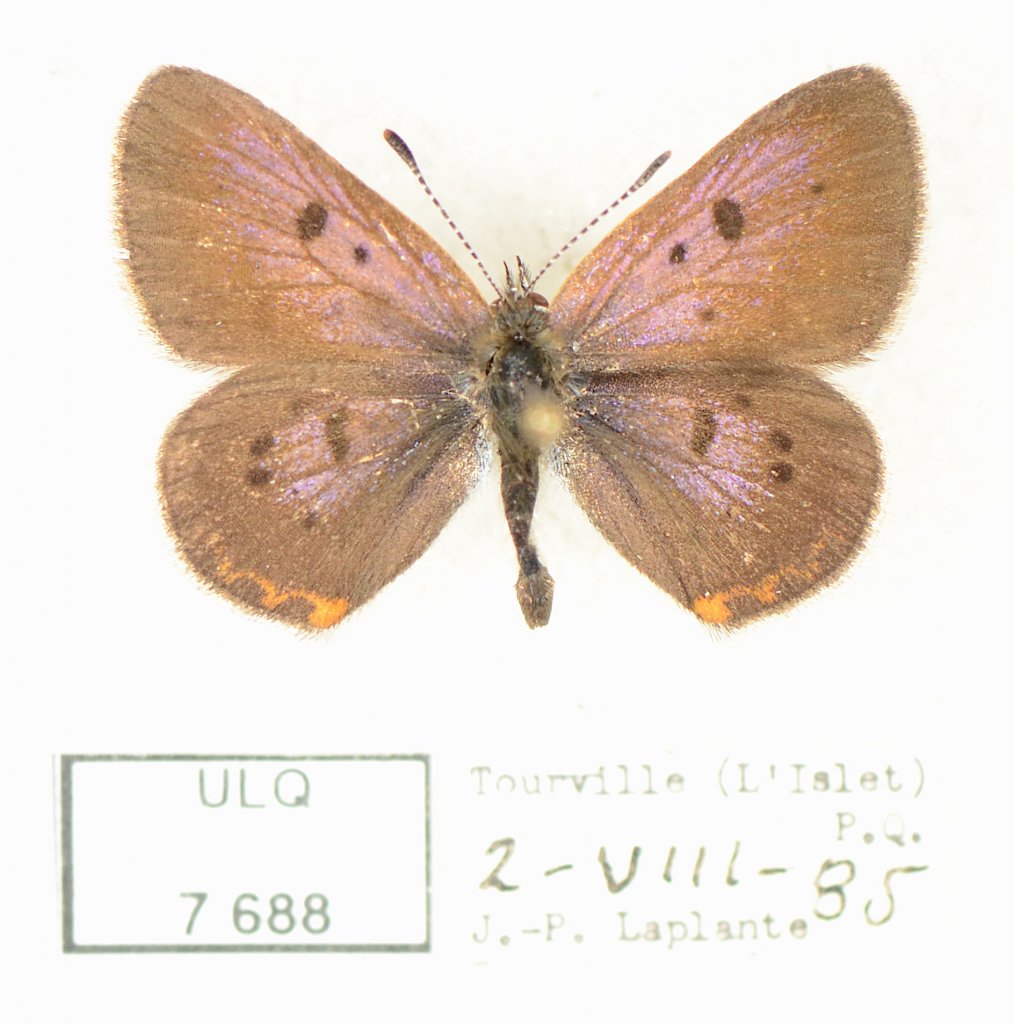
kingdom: Animalia
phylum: Arthropoda
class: Insecta
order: Lepidoptera
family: Sesiidae
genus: Sesia
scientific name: Sesia Lycaena epixanthe
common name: Bog Copper
